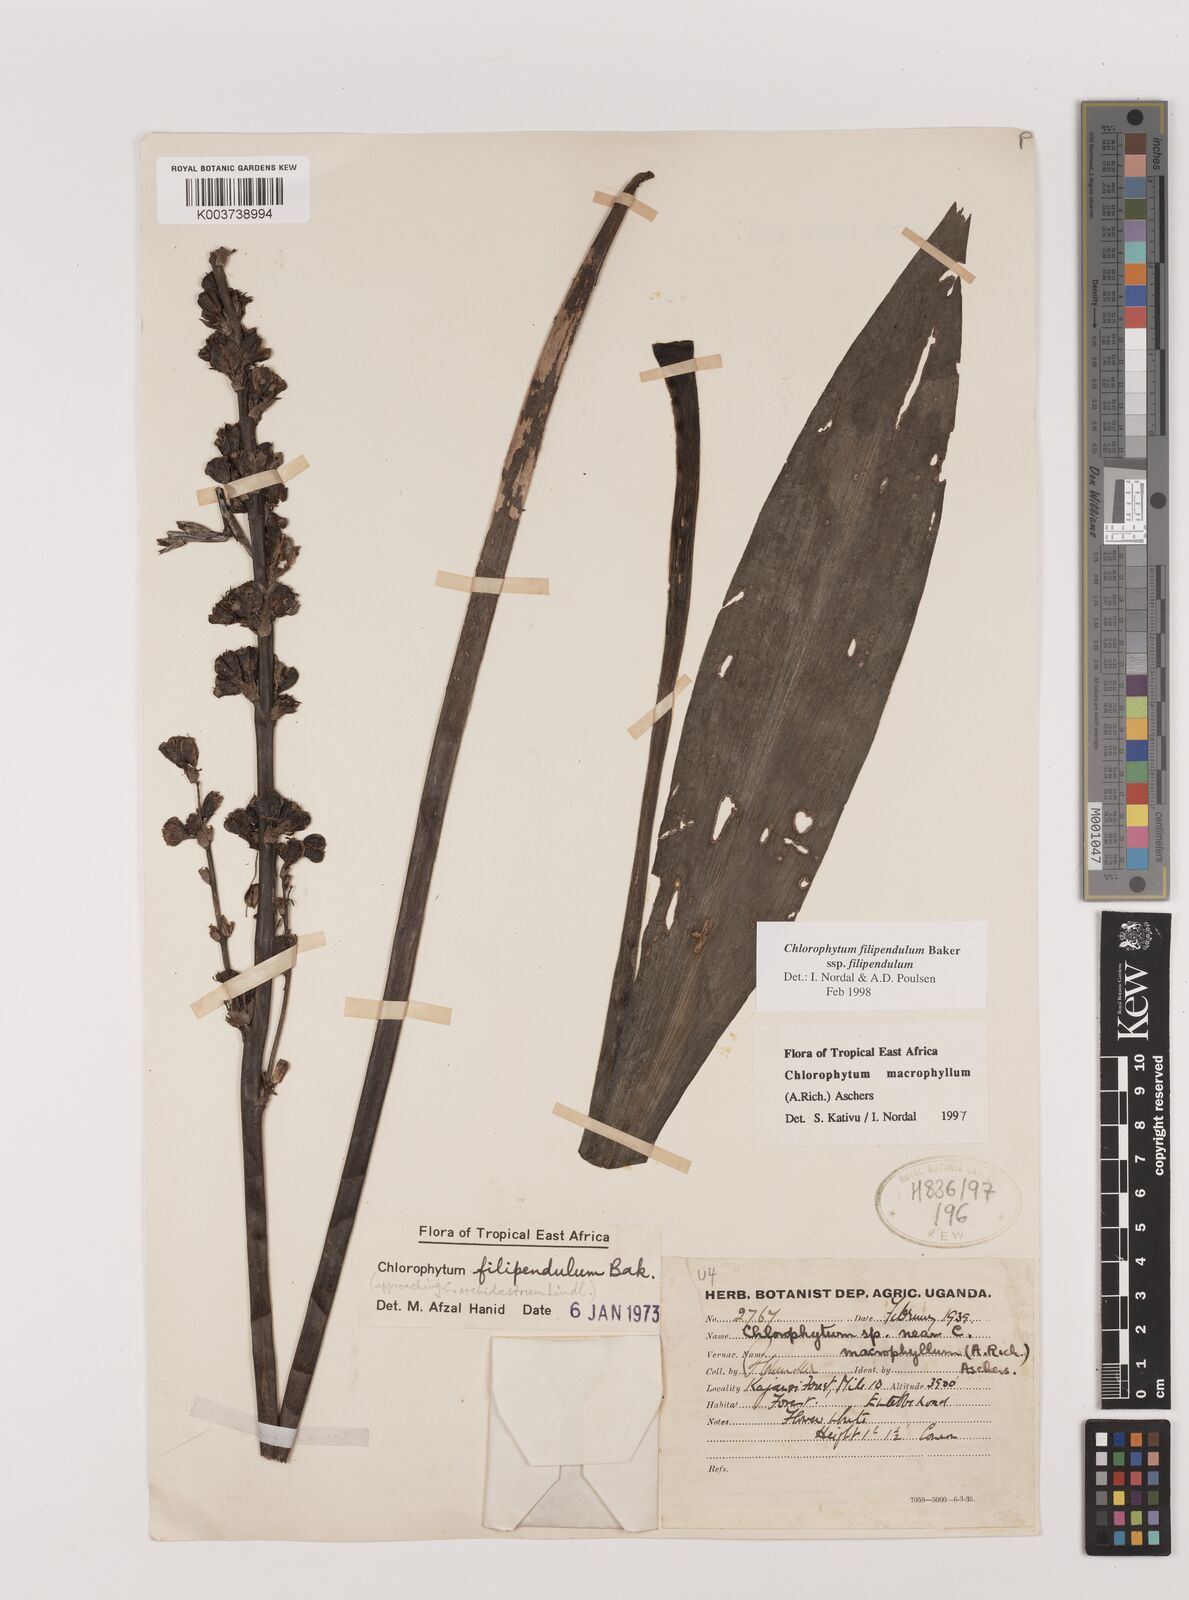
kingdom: Plantae
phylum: Tracheophyta
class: Liliopsida
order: Asparagales
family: Asparagaceae
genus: Chlorophytum
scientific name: Chlorophytum filipendulum
